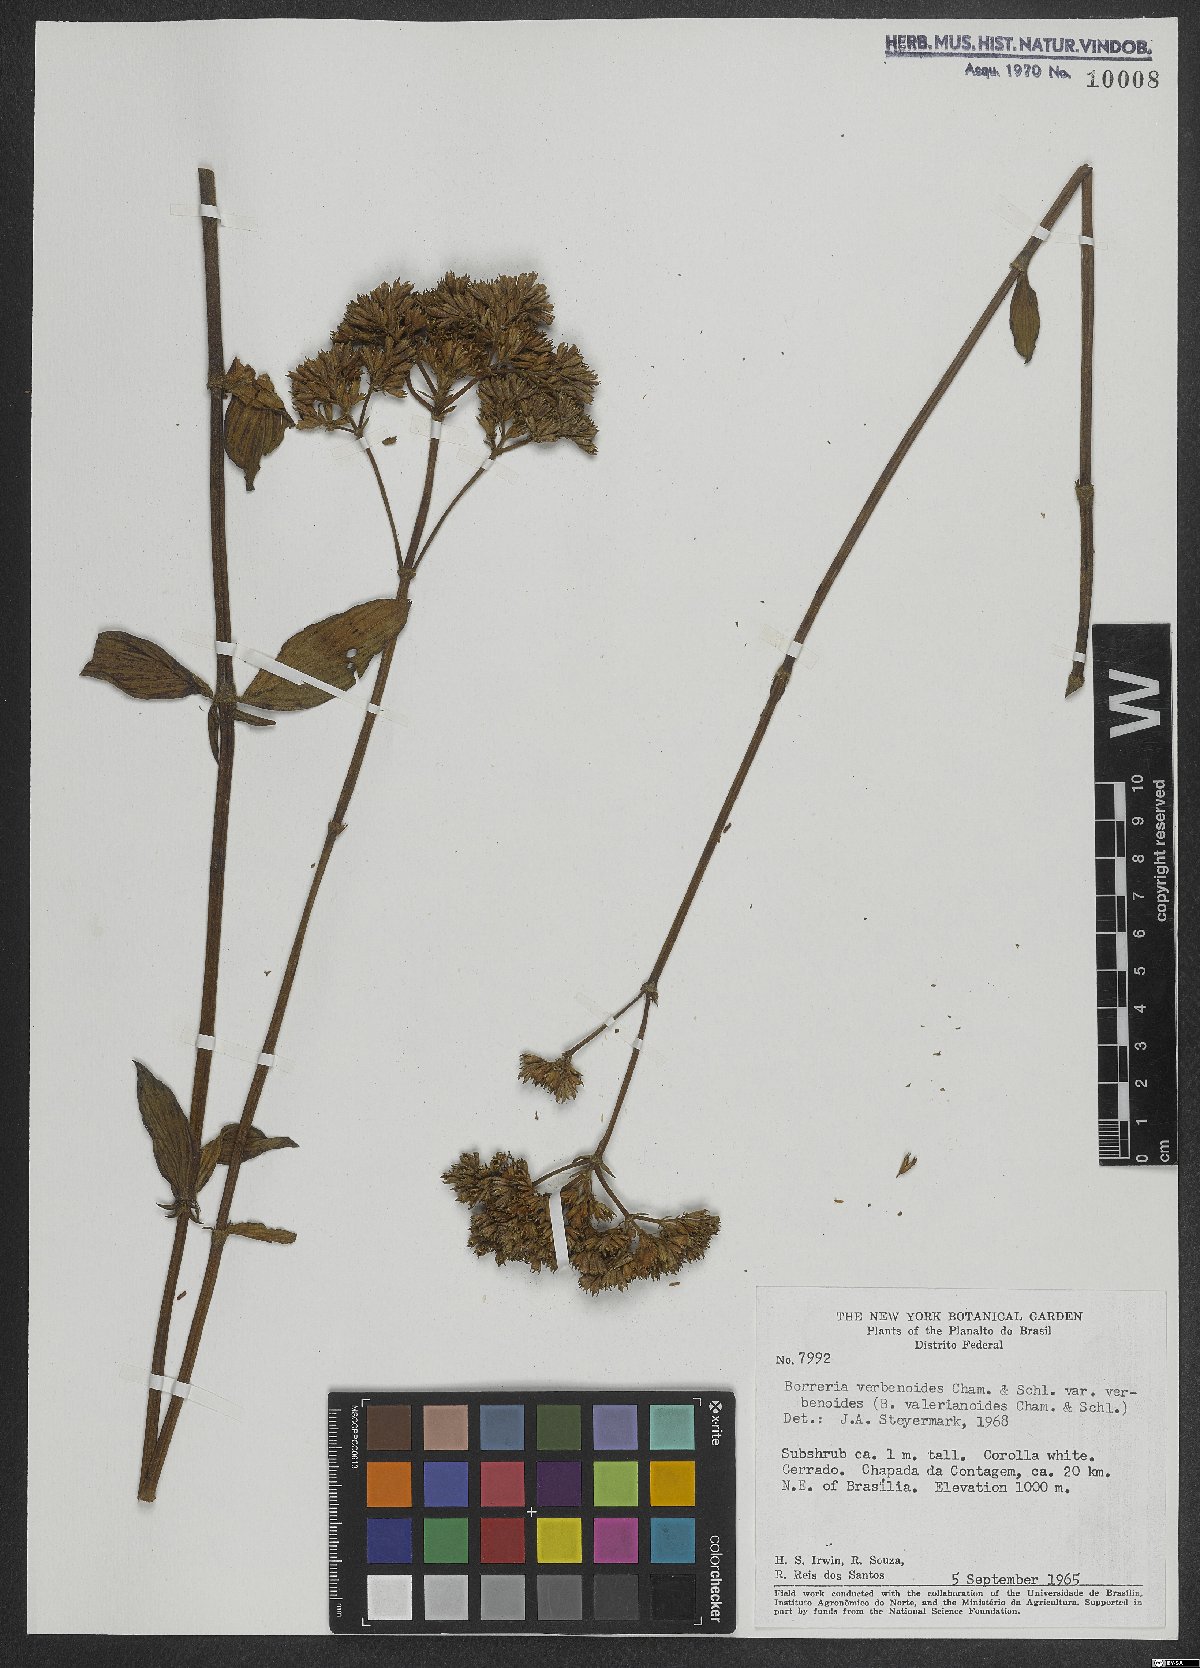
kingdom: Plantae
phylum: Tracheophyta
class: Magnoliopsida
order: Gentianales
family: Rubiaceae
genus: Spermacoce
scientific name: Spermacoce verbenoides
